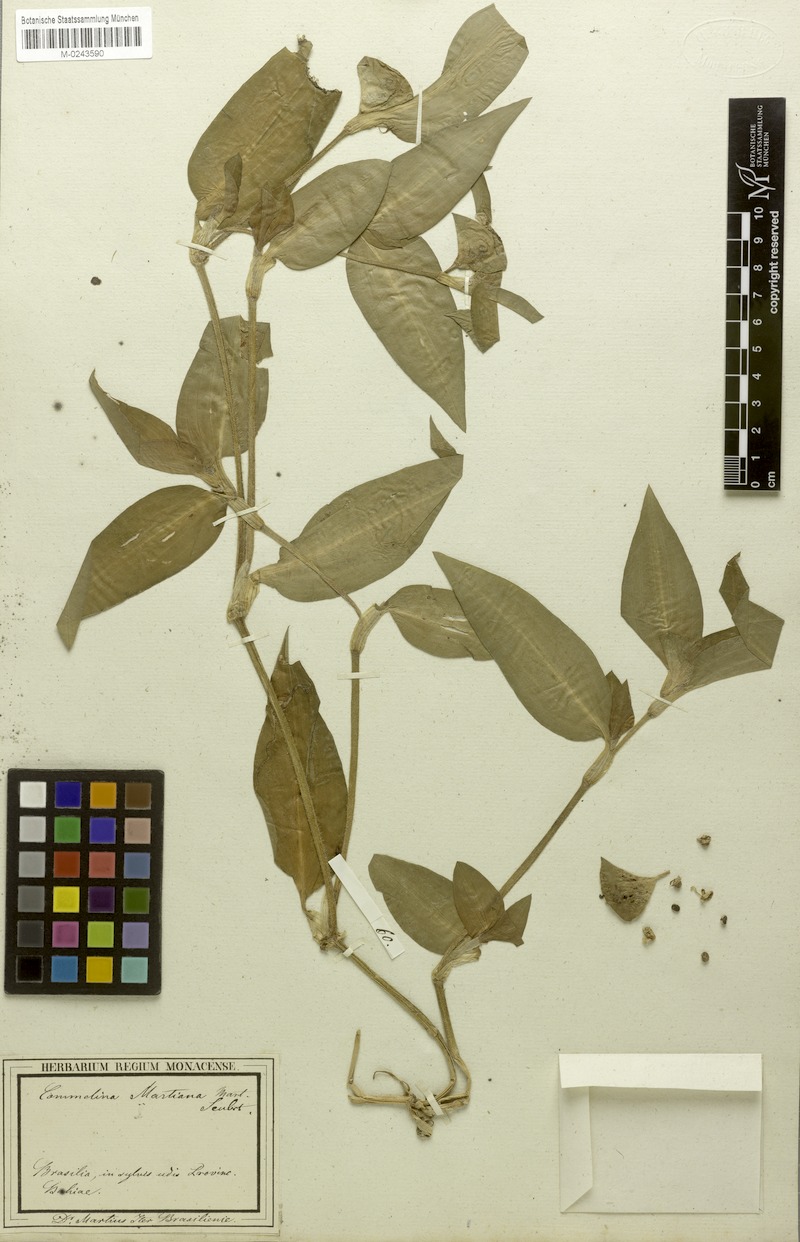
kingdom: Plantae
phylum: Tracheophyta
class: Liliopsida
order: Commelinales
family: Commelinaceae
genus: Commelina
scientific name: Commelina erecta
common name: Blousel blommetjie
